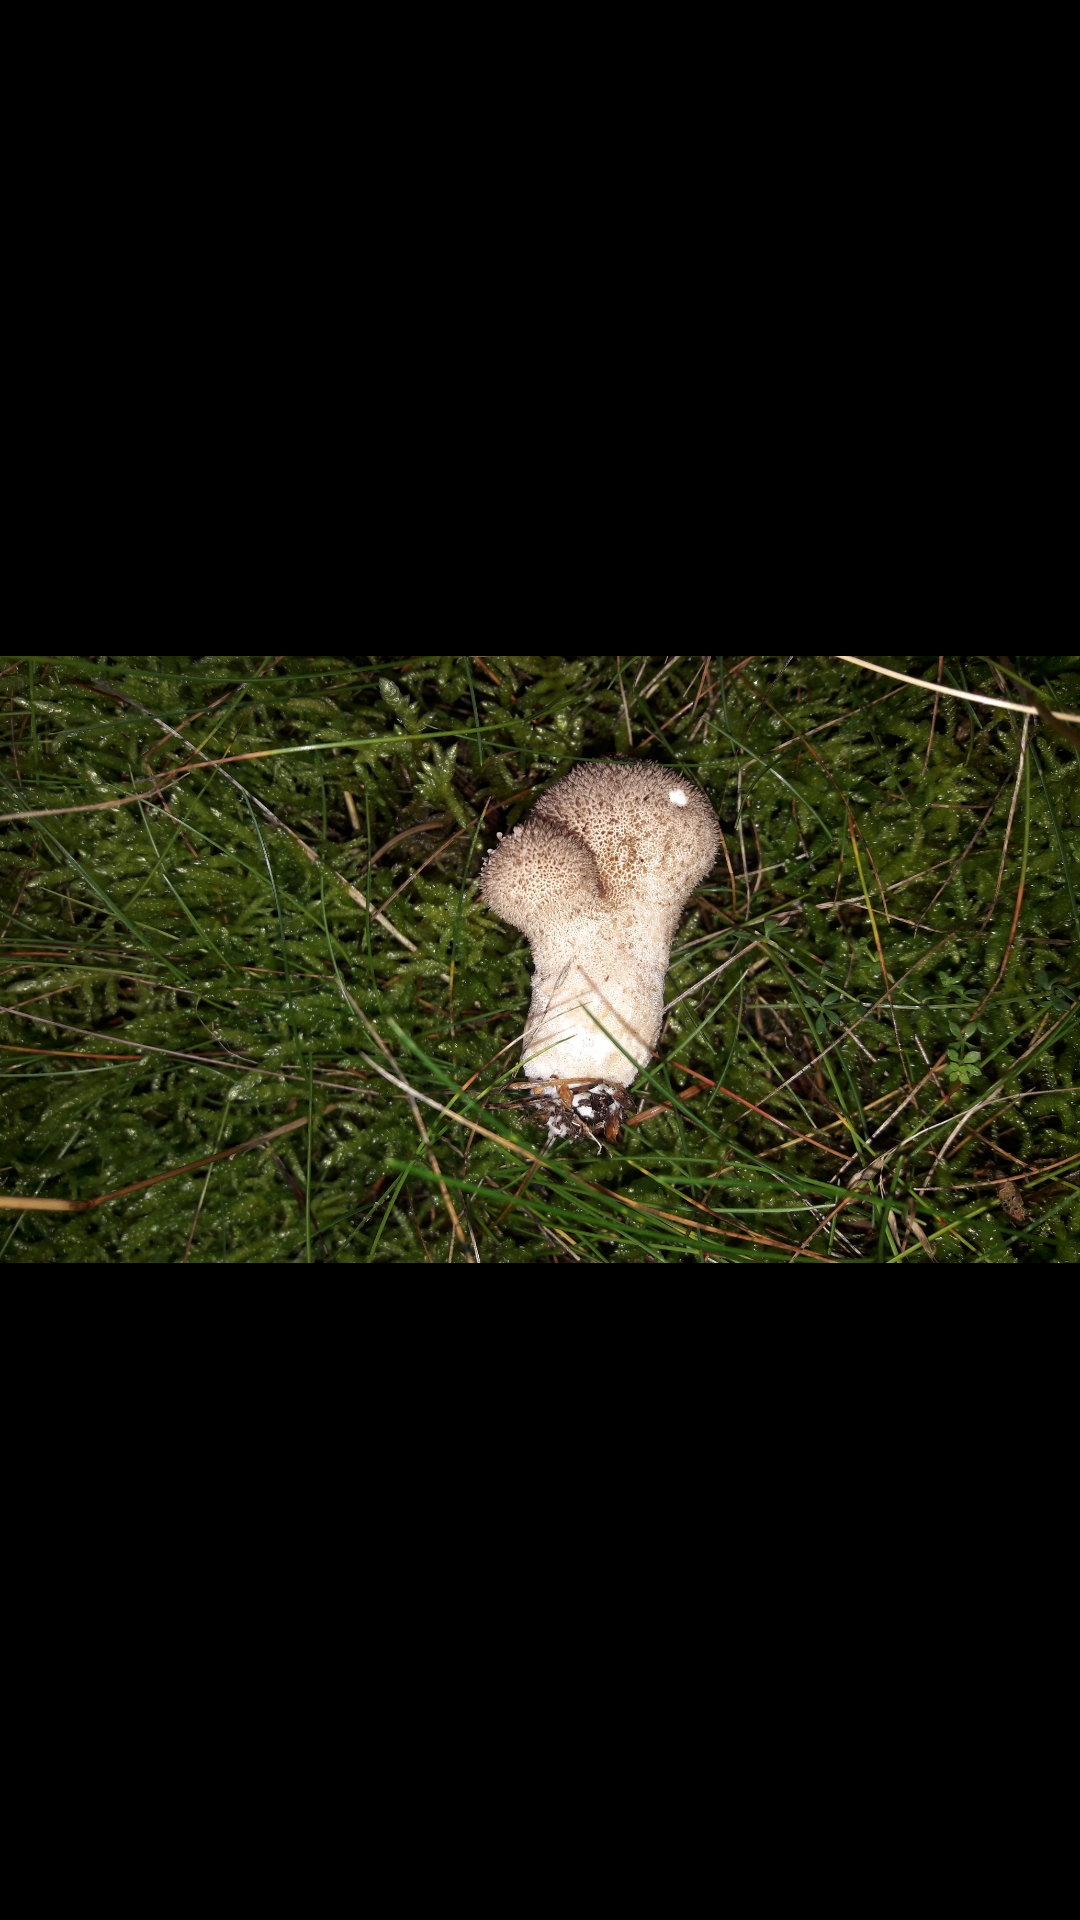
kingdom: Fungi
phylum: Basidiomycota
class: Agaricomycetes
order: Agaricales
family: Lycoperdaceae
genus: Lycoperdon
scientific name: Lycoperdon nigrescens
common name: sortagtig støvbold
